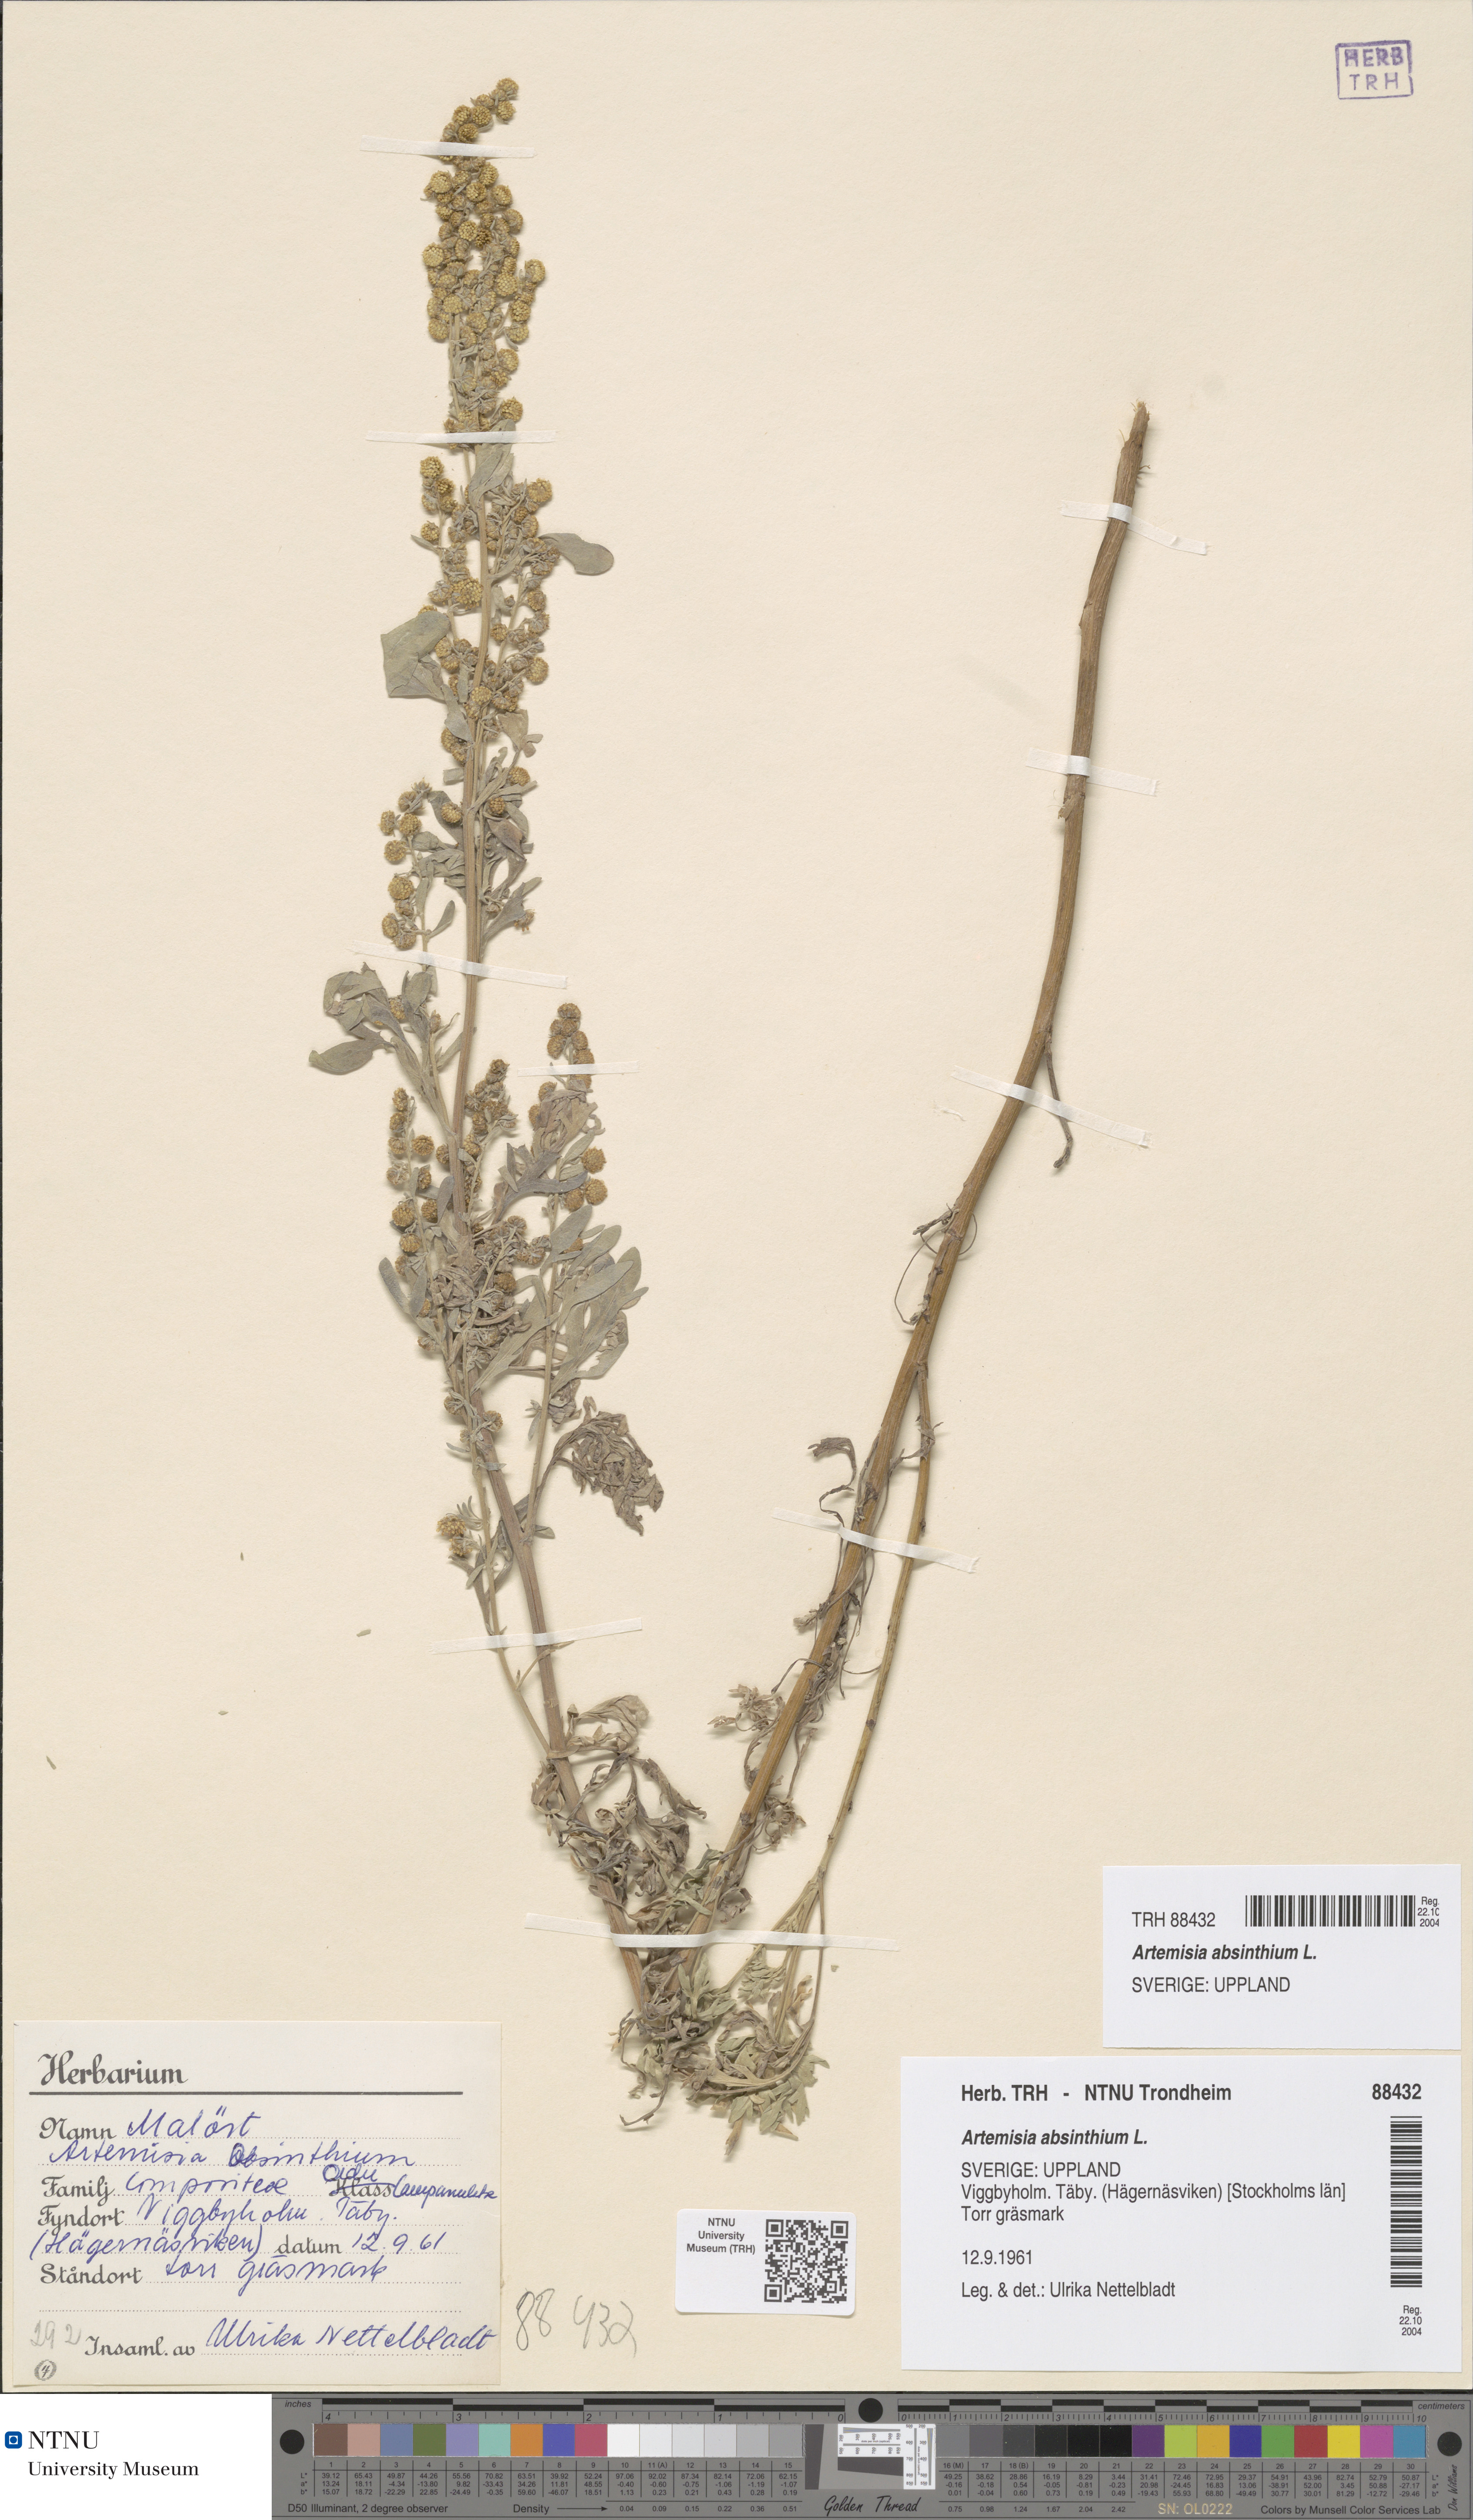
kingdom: Plantae
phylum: Tracheophyta
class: Magnoliopsida
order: Asterales
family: Asteraceae
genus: Artemisia
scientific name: Artemisia absinthium
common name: Wormwood
